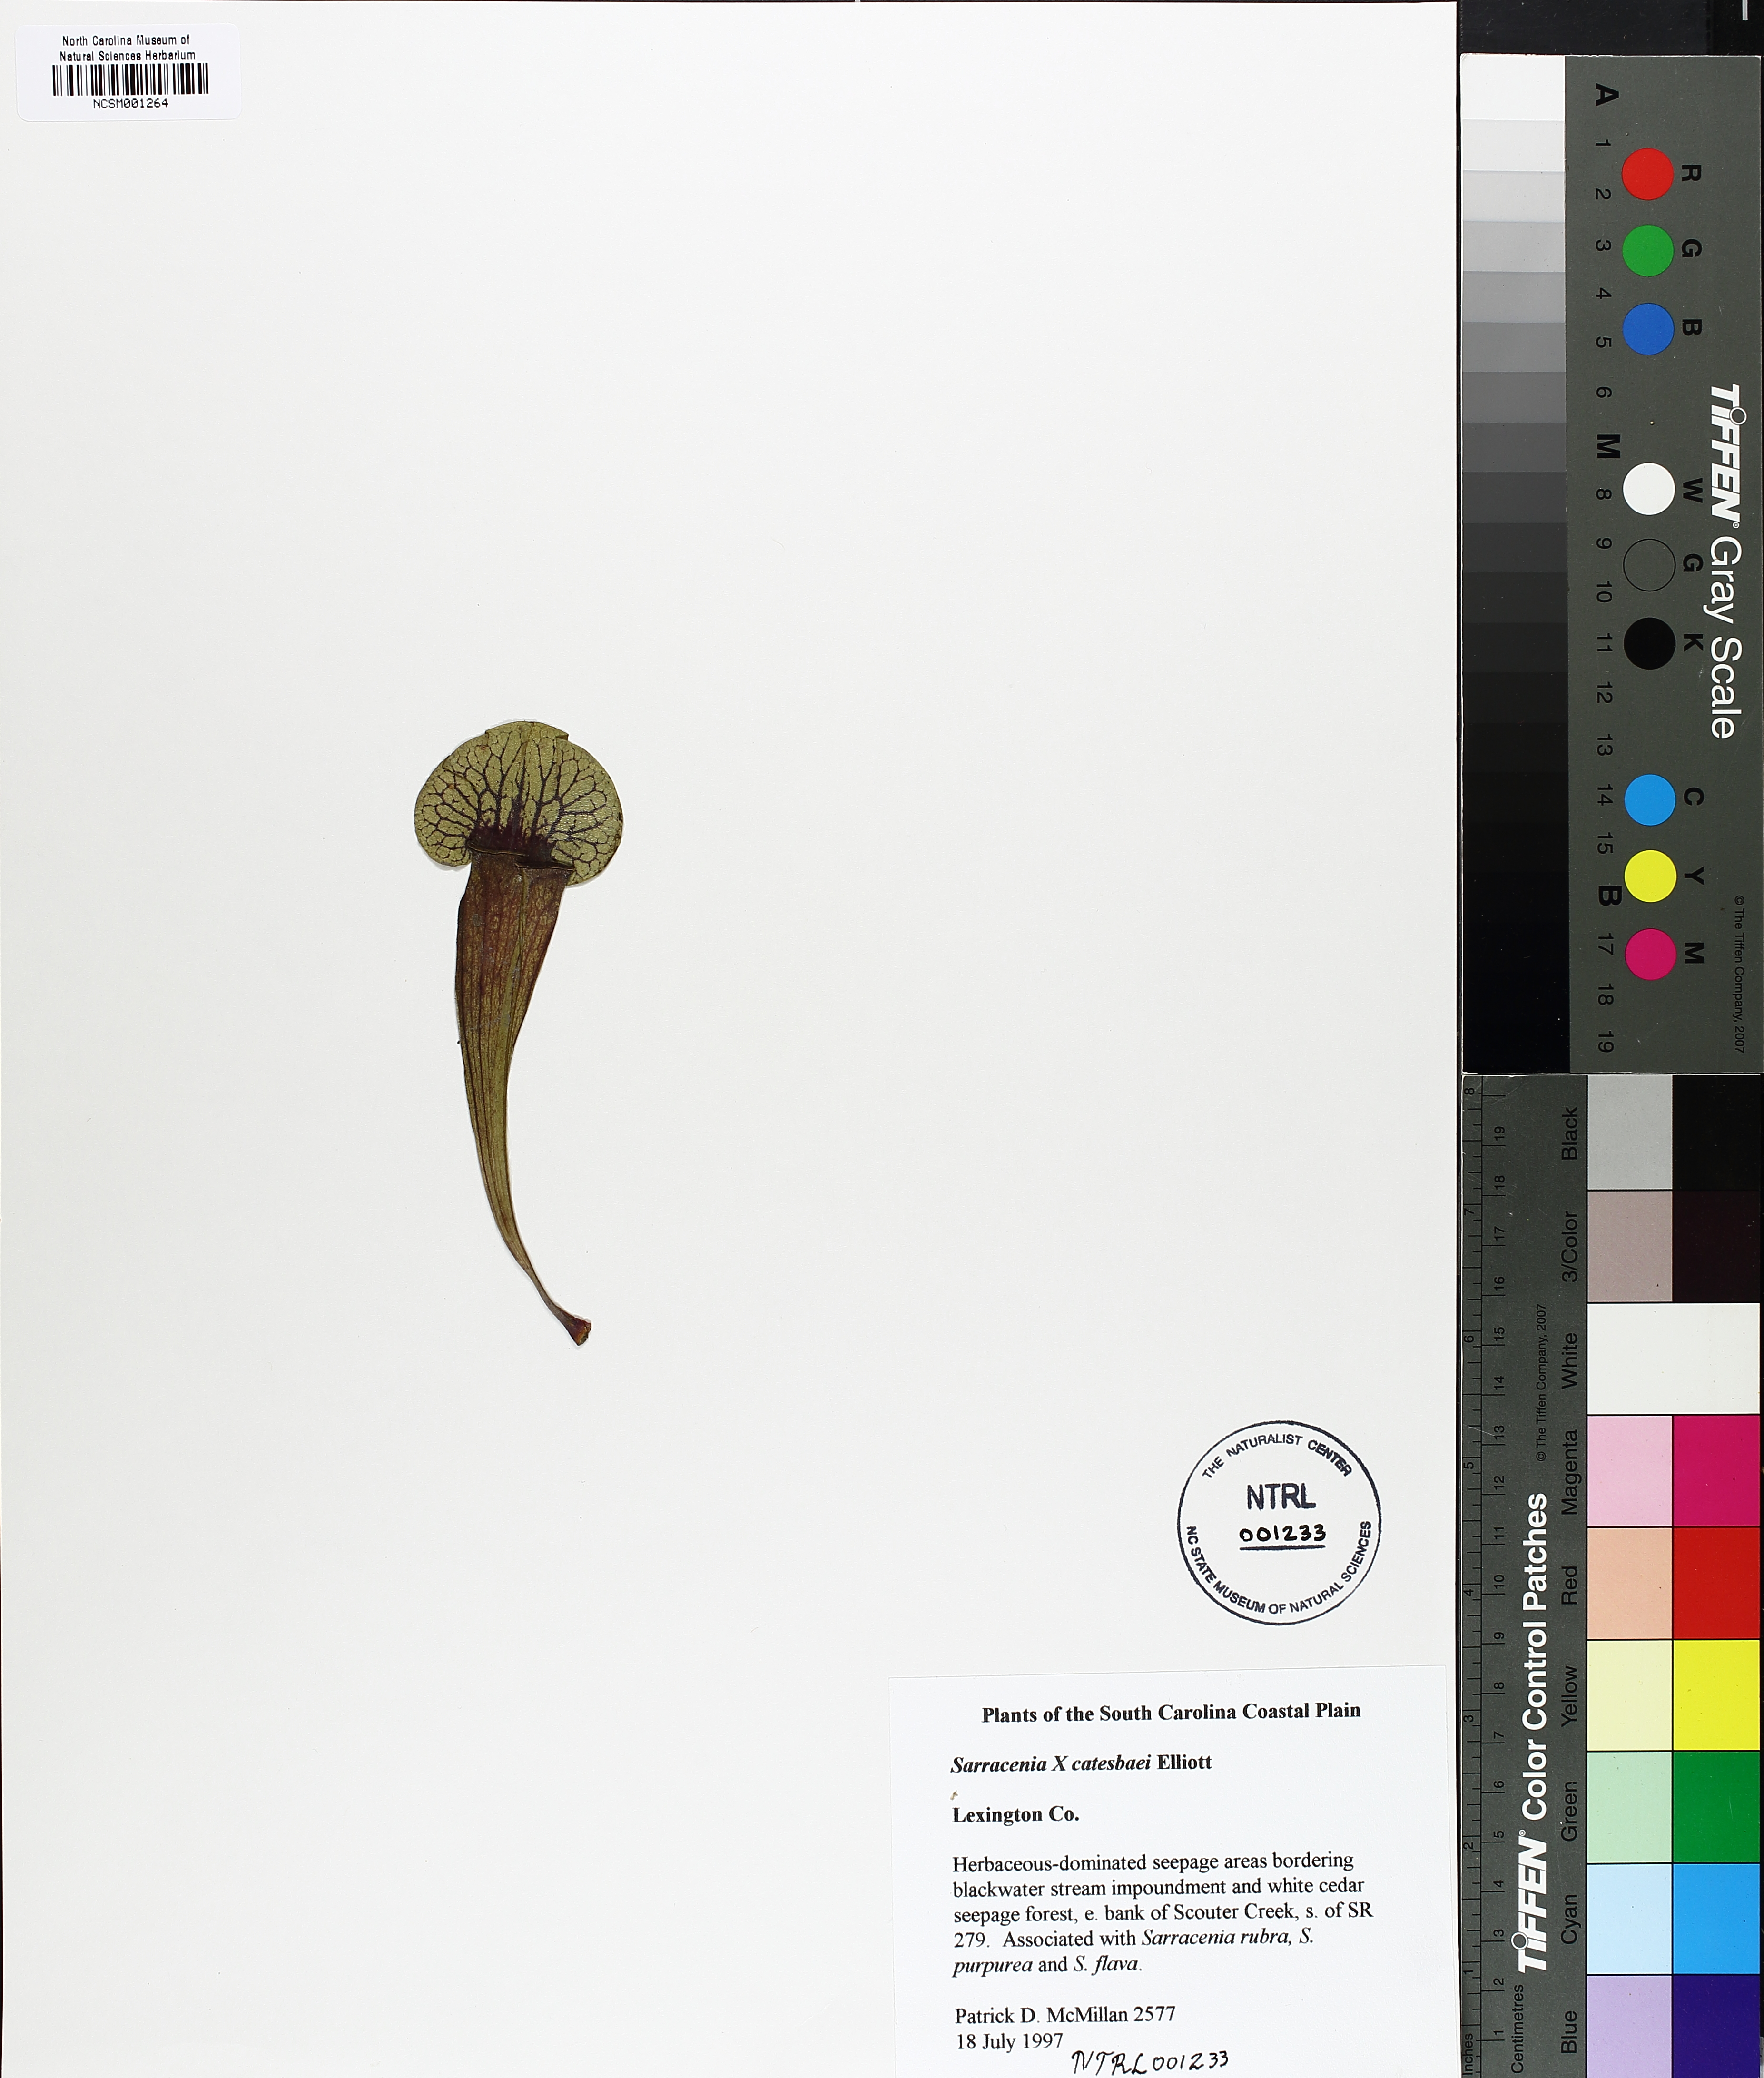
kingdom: Plantae
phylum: Tracheophyta
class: Magnoliopsida
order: Ericales
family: Sarraceniaceae
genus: Sarracenia
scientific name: Sarracenia catesbaei
